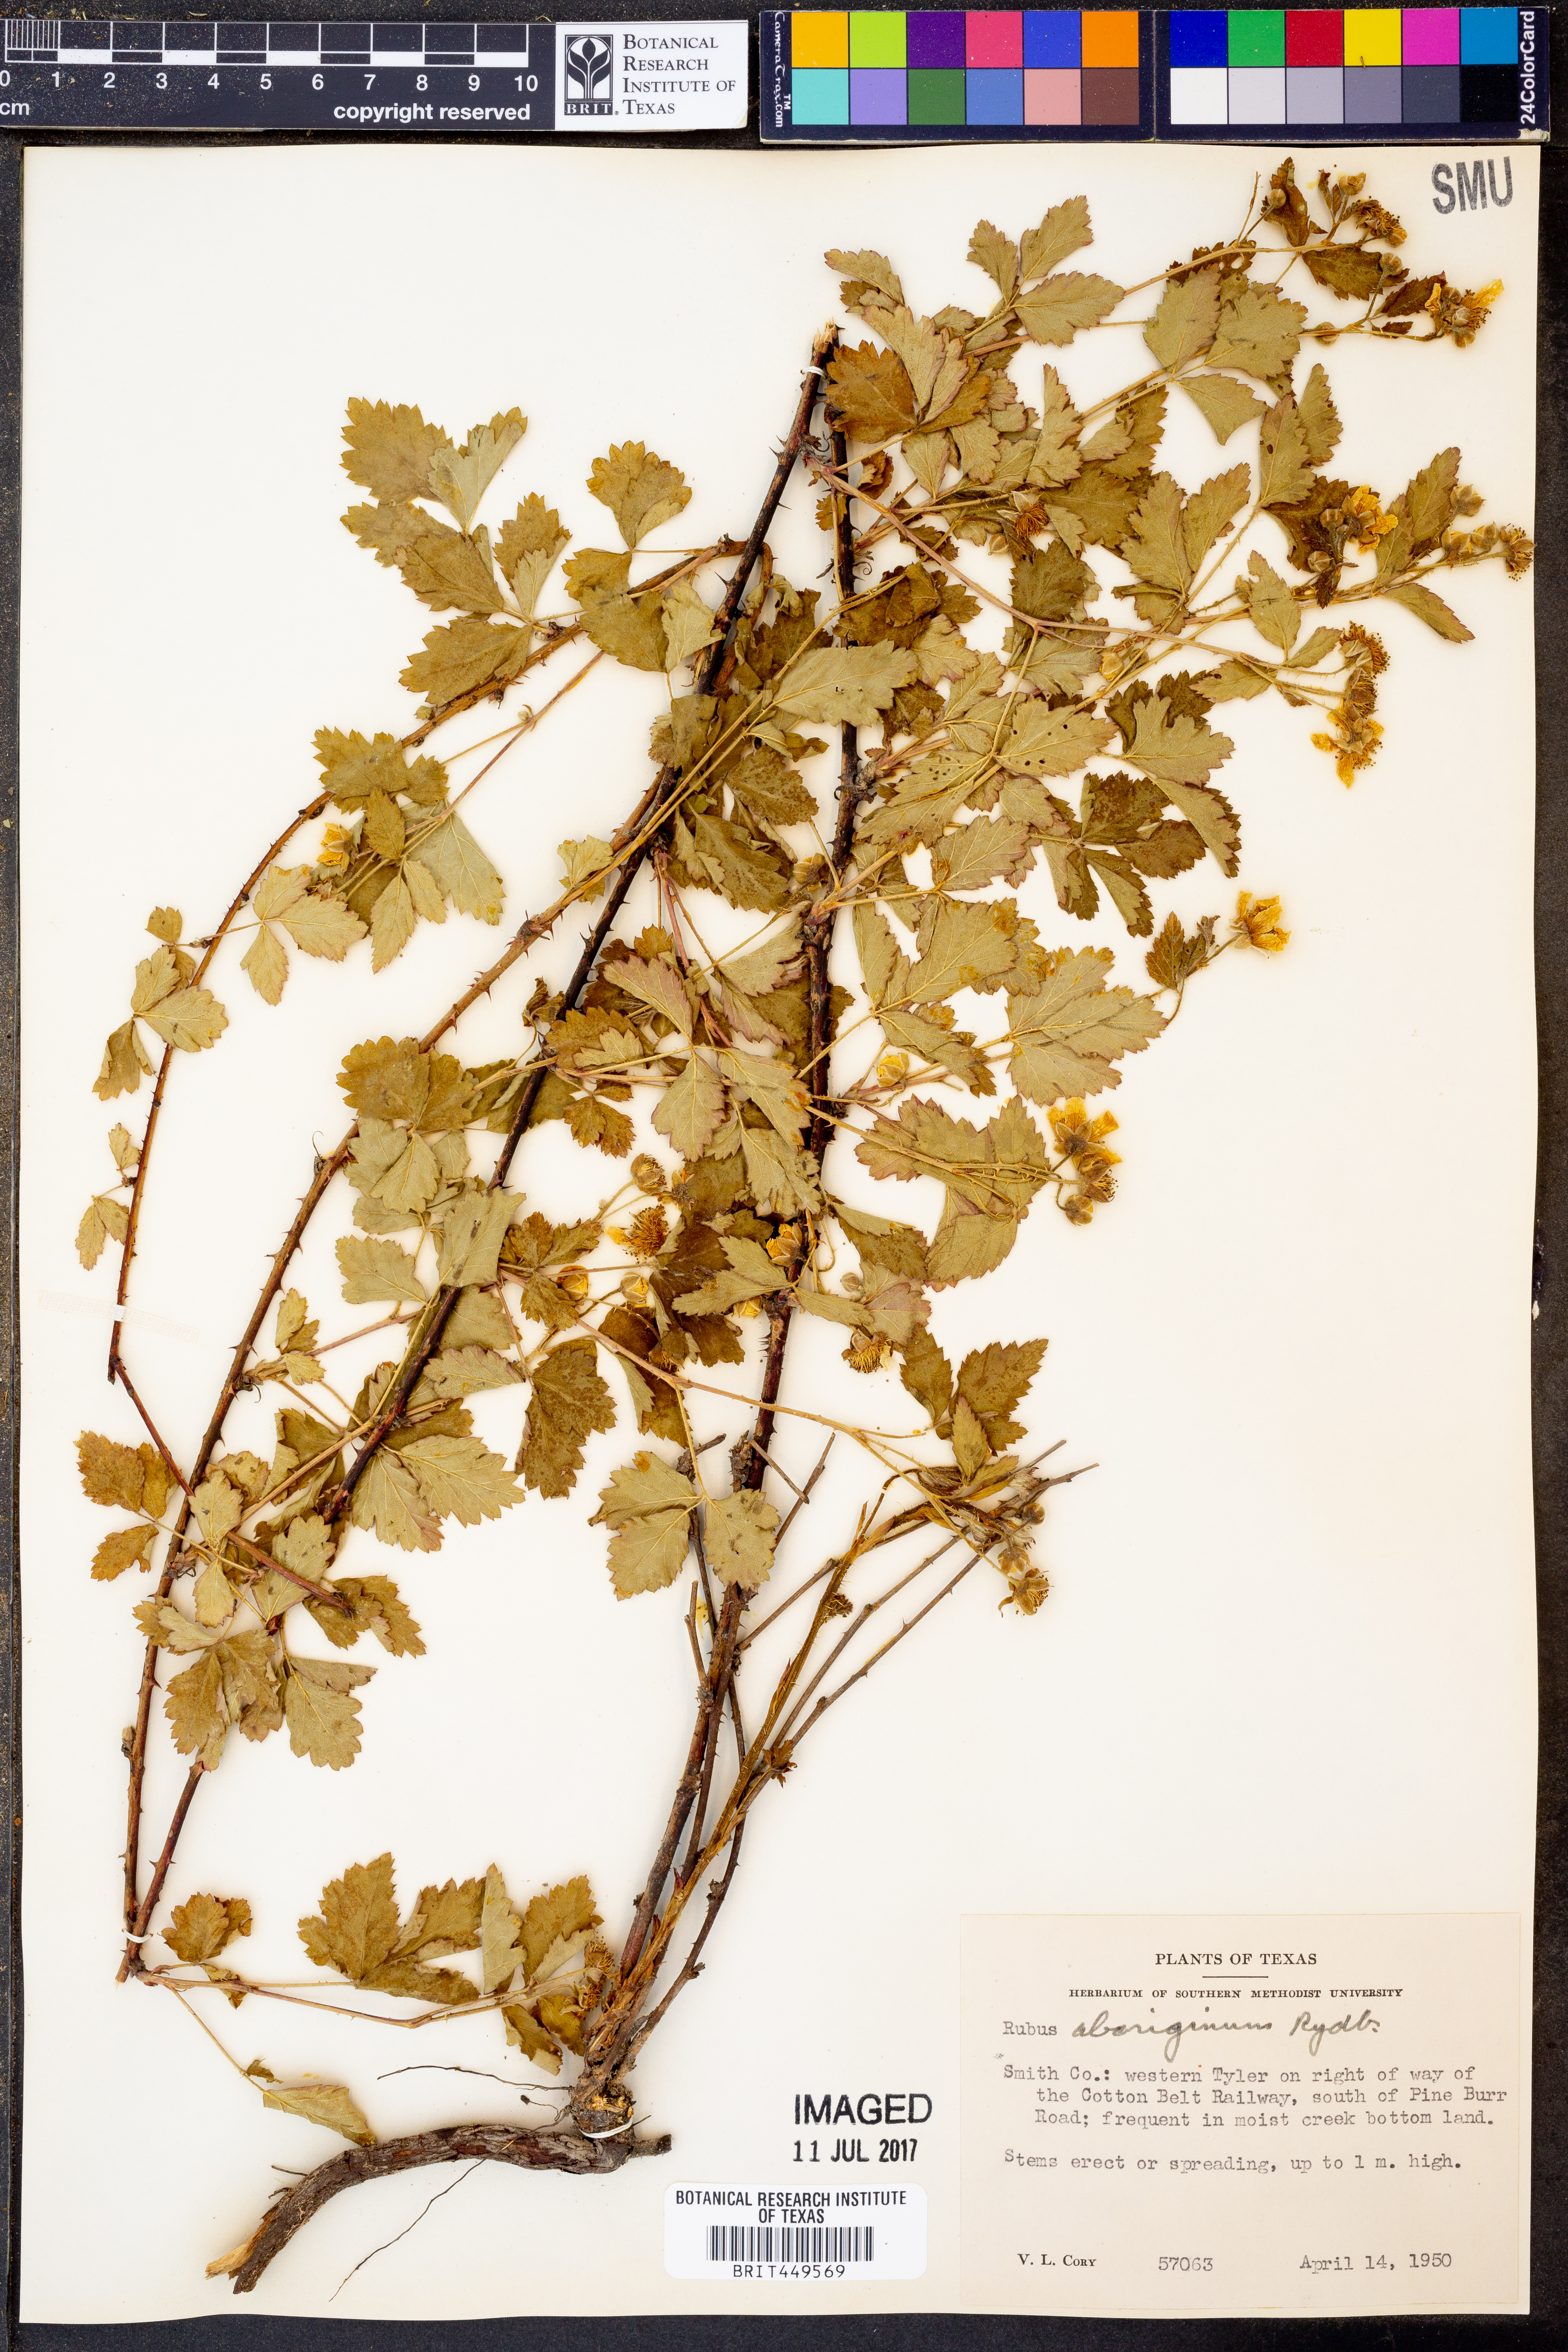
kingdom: Plantae
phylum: Tracheophyta
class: Magnoliopsida
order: Rosales
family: Rosaceae
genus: Rubus
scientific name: Rubus aboriginum
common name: Mayes dewberry
